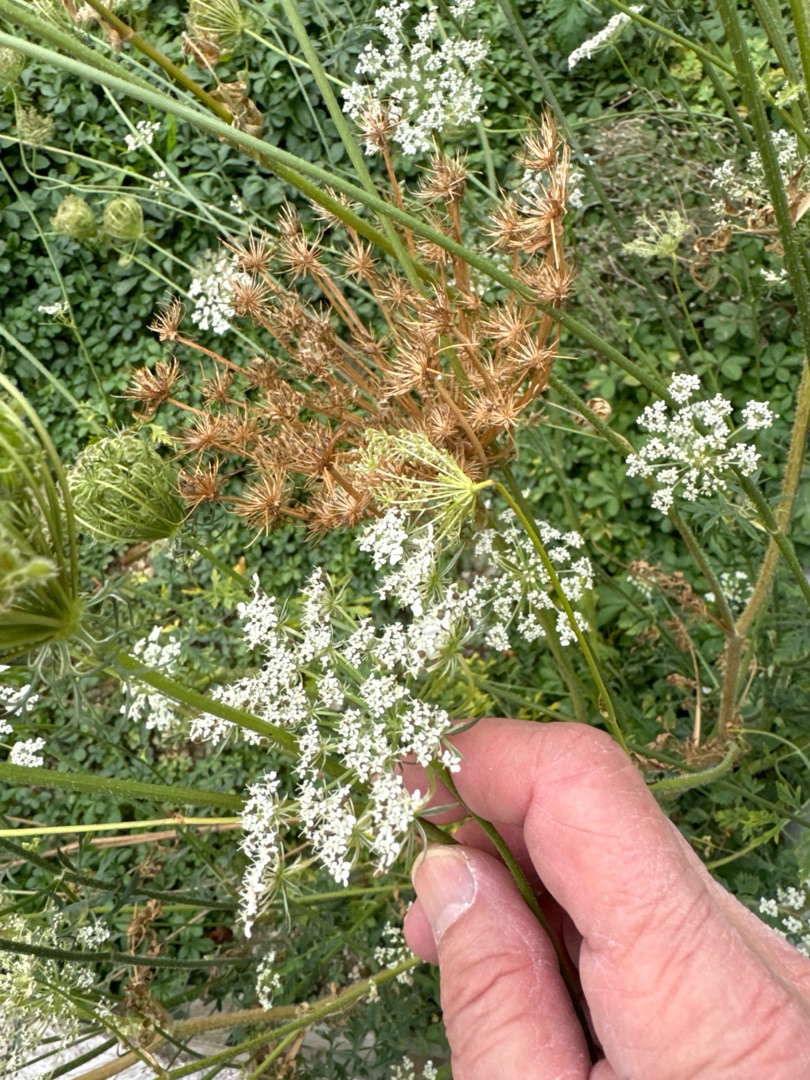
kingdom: Plantae
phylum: Tracheophyta
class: Magnoliopsida
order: Apiales
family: Apiaceae
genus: Daucus
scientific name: Daucus carota
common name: Gulerod
